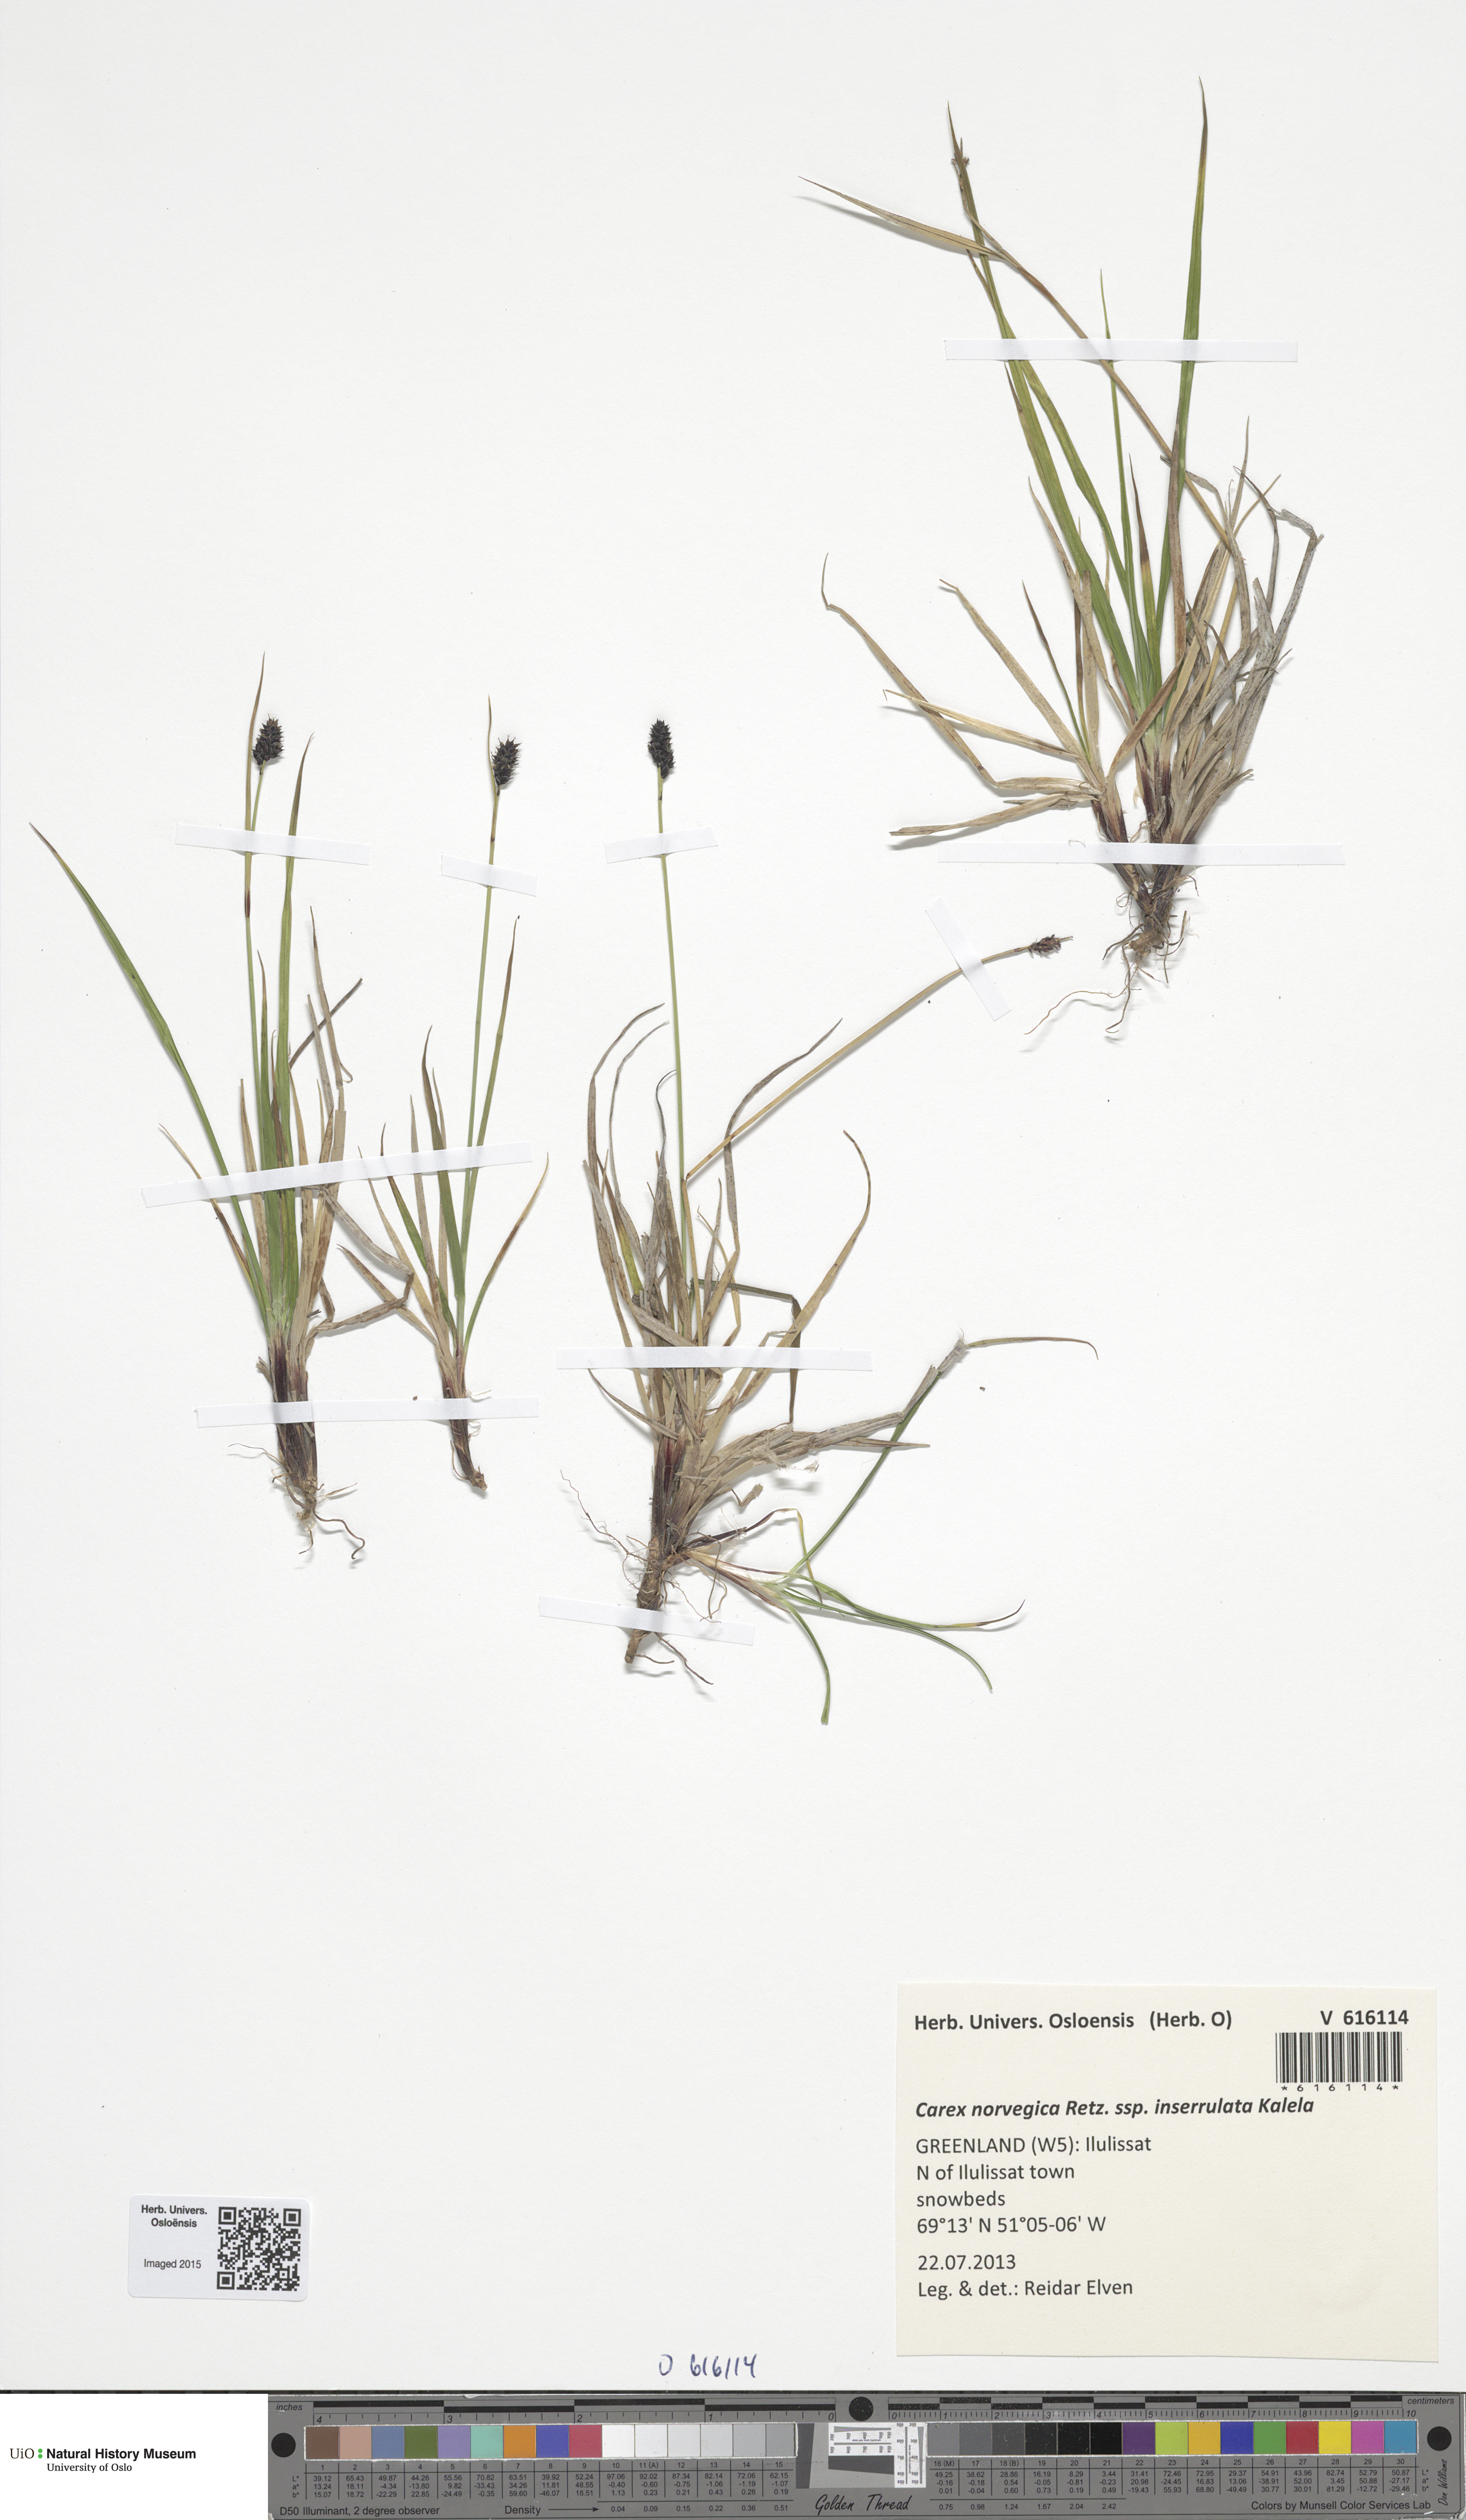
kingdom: Plantae
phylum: Tracheophyta
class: Liliopsida
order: Poales
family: Cyperaceae
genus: Carex
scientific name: Carex norvegica
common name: Close-headed alpine-sedge
